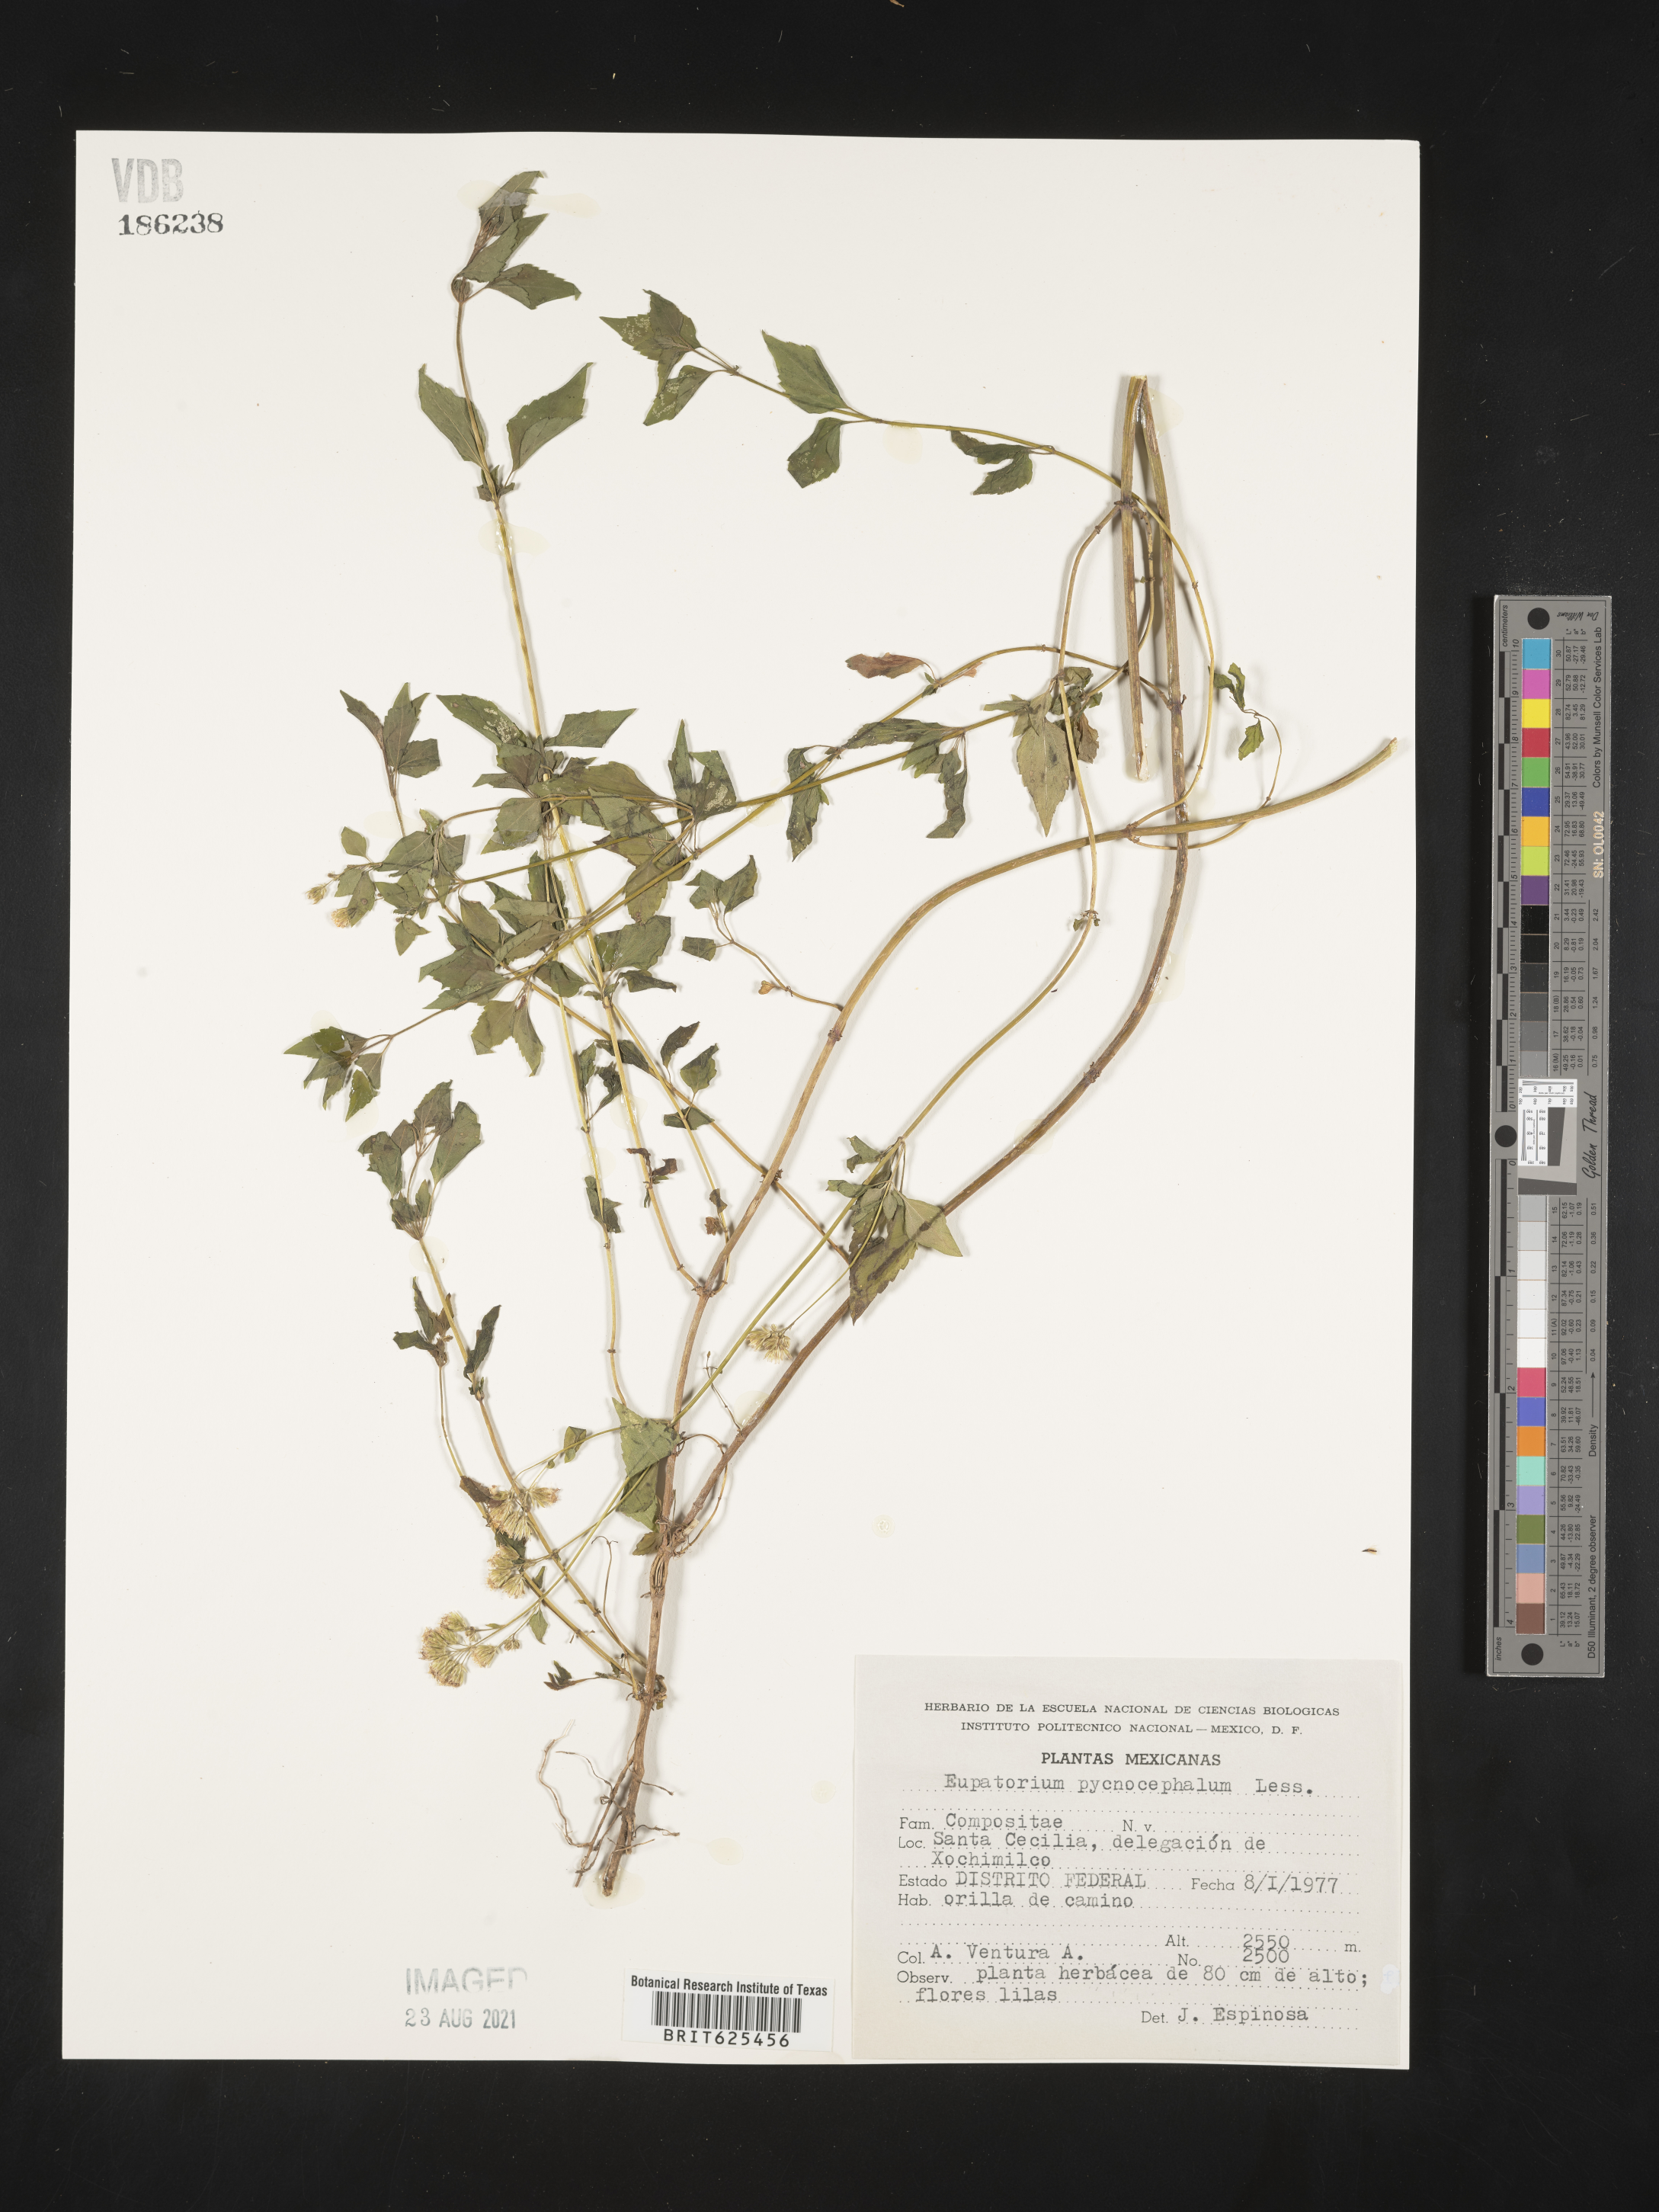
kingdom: Plantae
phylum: Tracheophyta
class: Magnoliopsida
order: Asterales
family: Asteraceae
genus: Eupatorium
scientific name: Eupatorium
